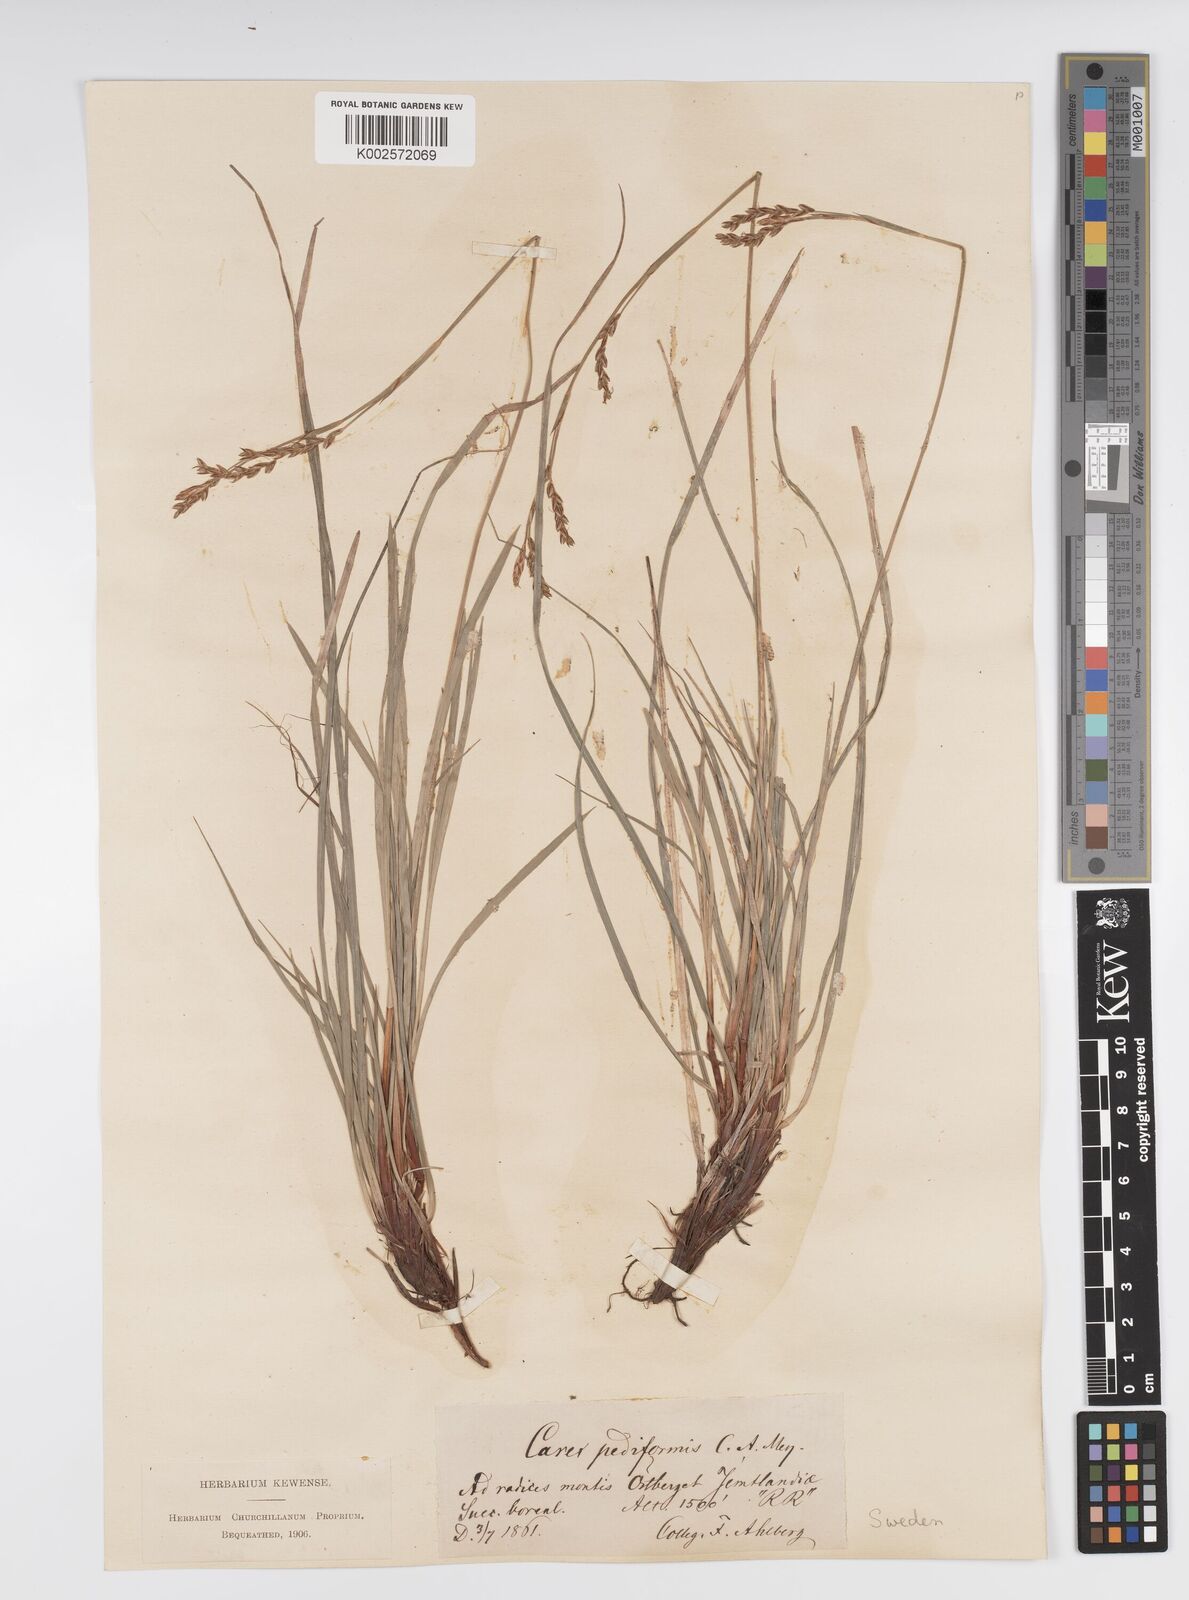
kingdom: Plantae
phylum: Tracheophyta
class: Liliopsida
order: Poales
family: Cyperaceae
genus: Carex
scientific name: Carex pediformis
